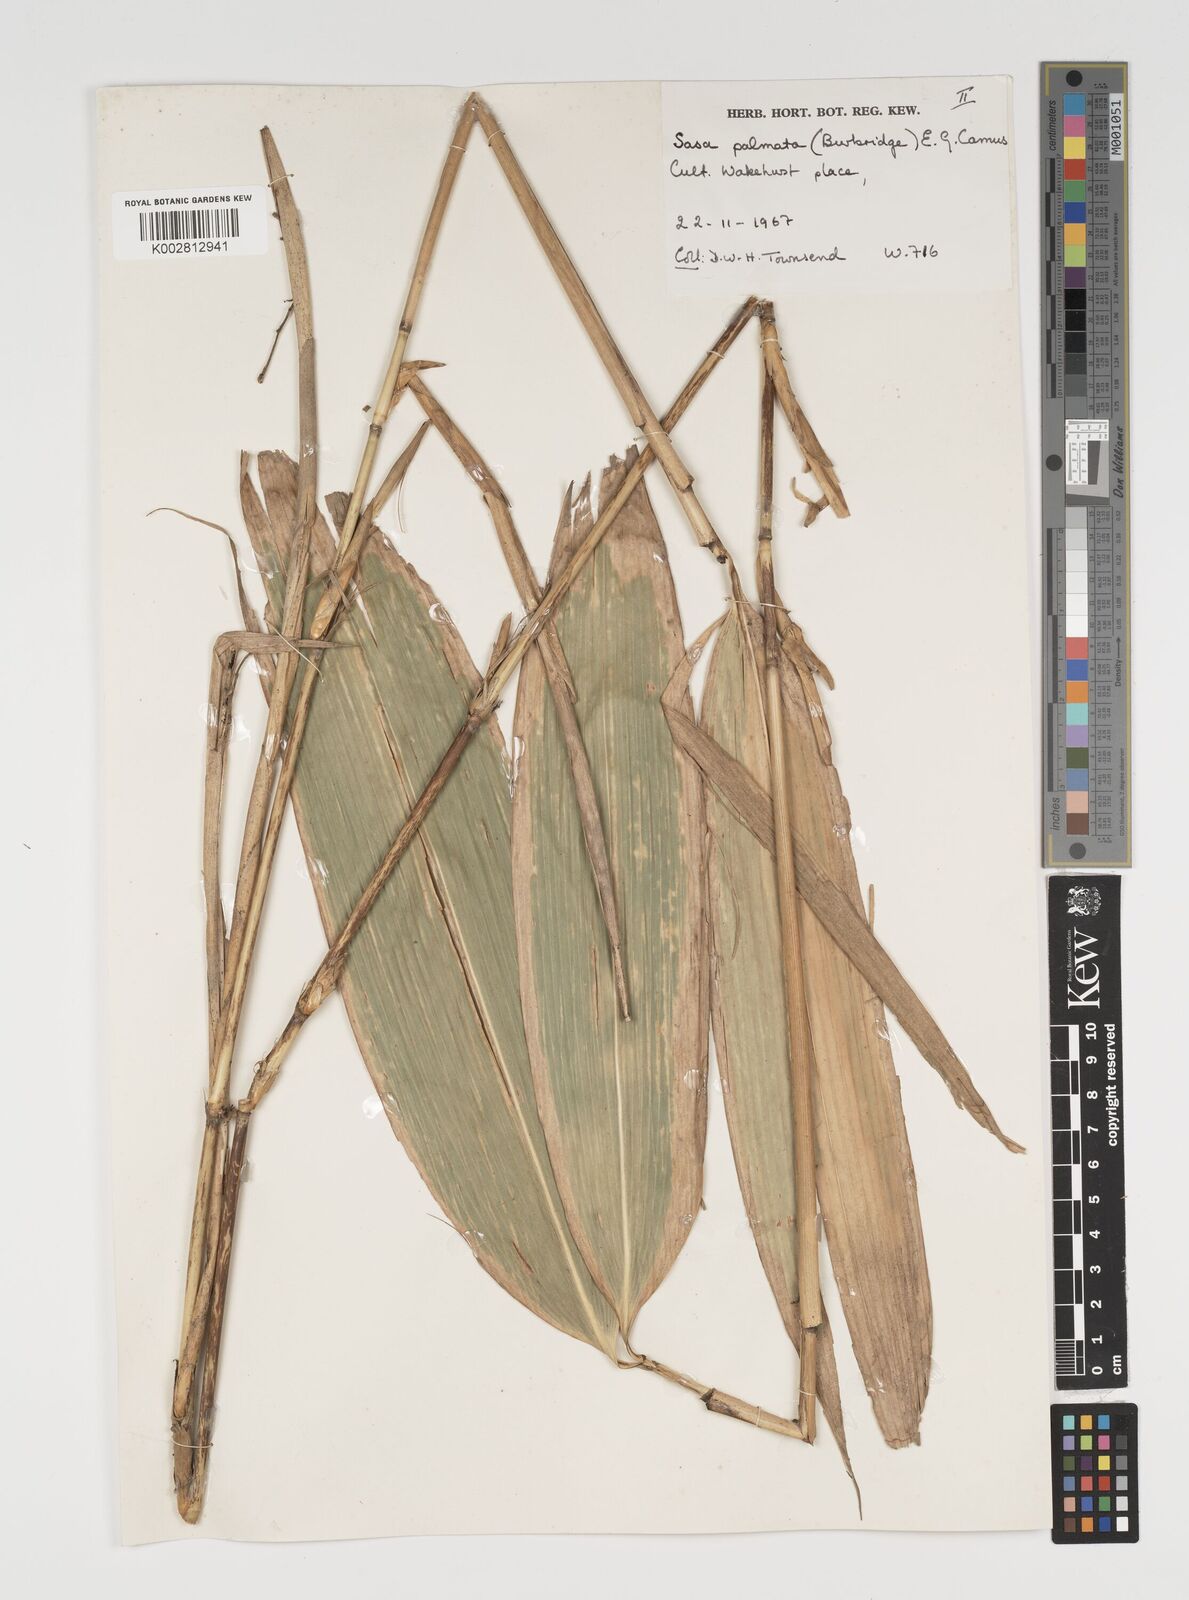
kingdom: Plantae
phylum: Tracheophyta
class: Liliopsida
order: Poales
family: Poaceae
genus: Sasa
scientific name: Sasa palmata
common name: Broad-leaved bamboo
